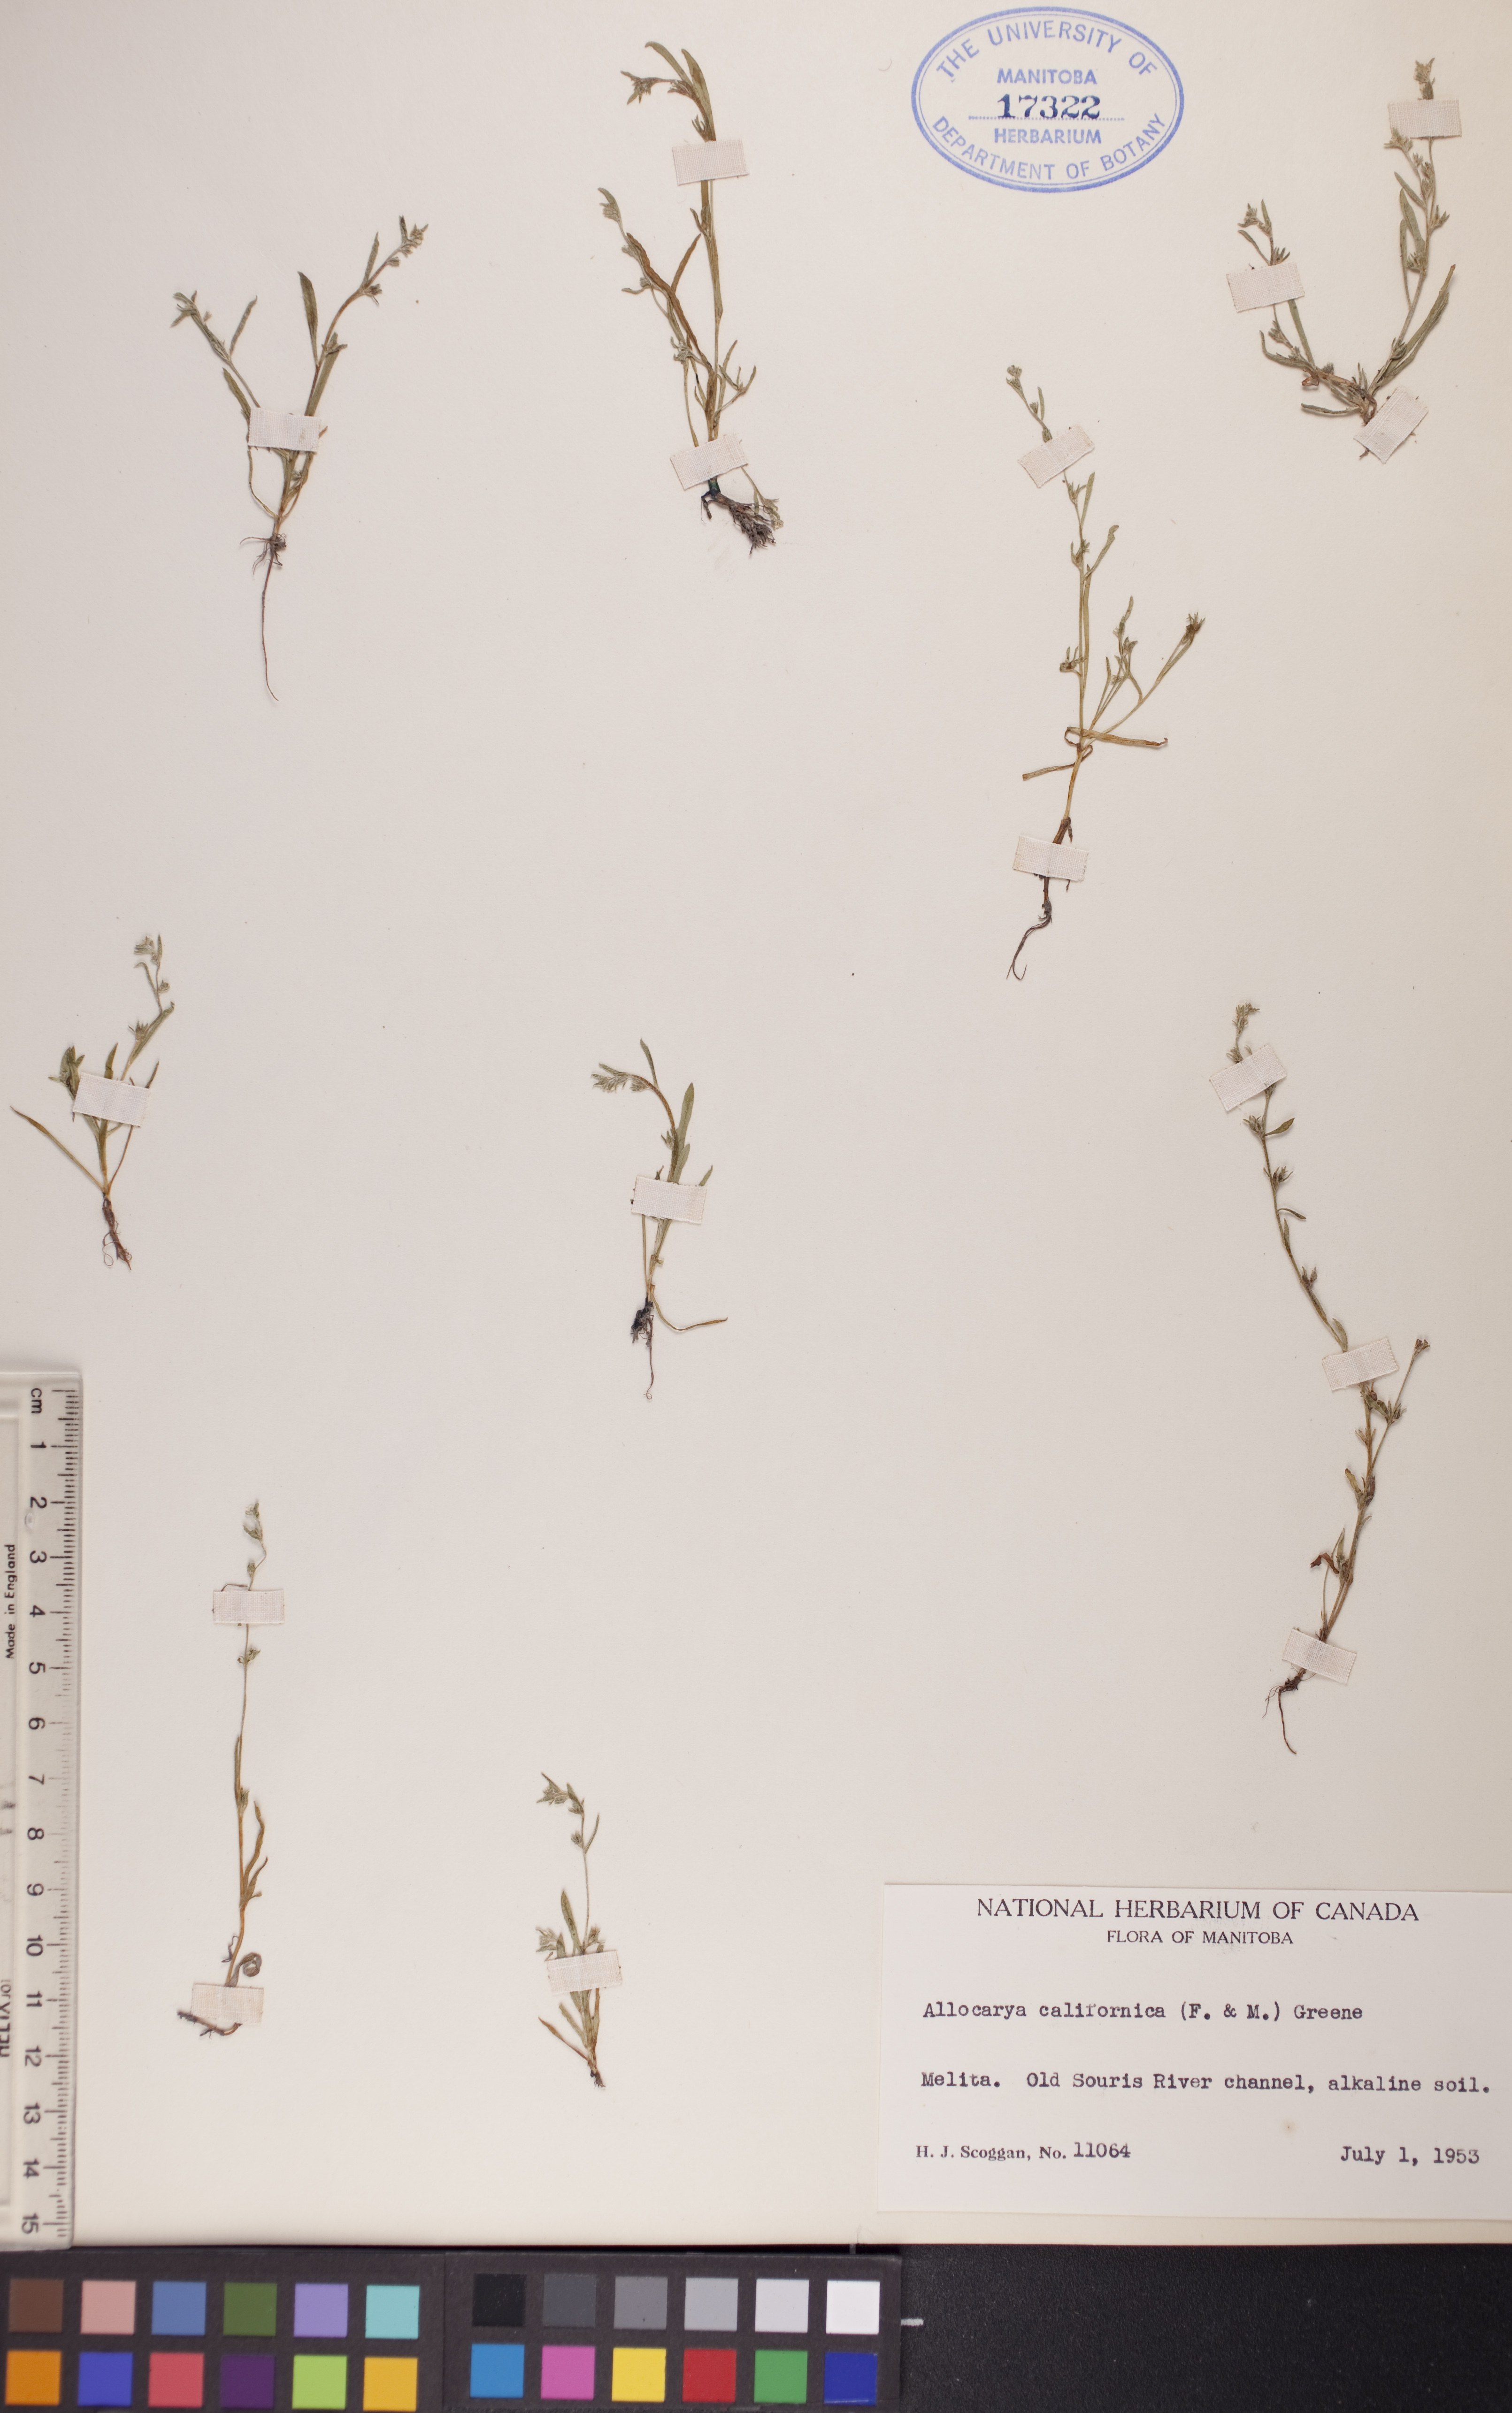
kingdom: Plantae
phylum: Tracheophyta
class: Magnoliopsida
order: Boraginales
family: Boraginaceae
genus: Plagiobothrys
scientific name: Plagiobothrys scouleri
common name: White forget-me-not
